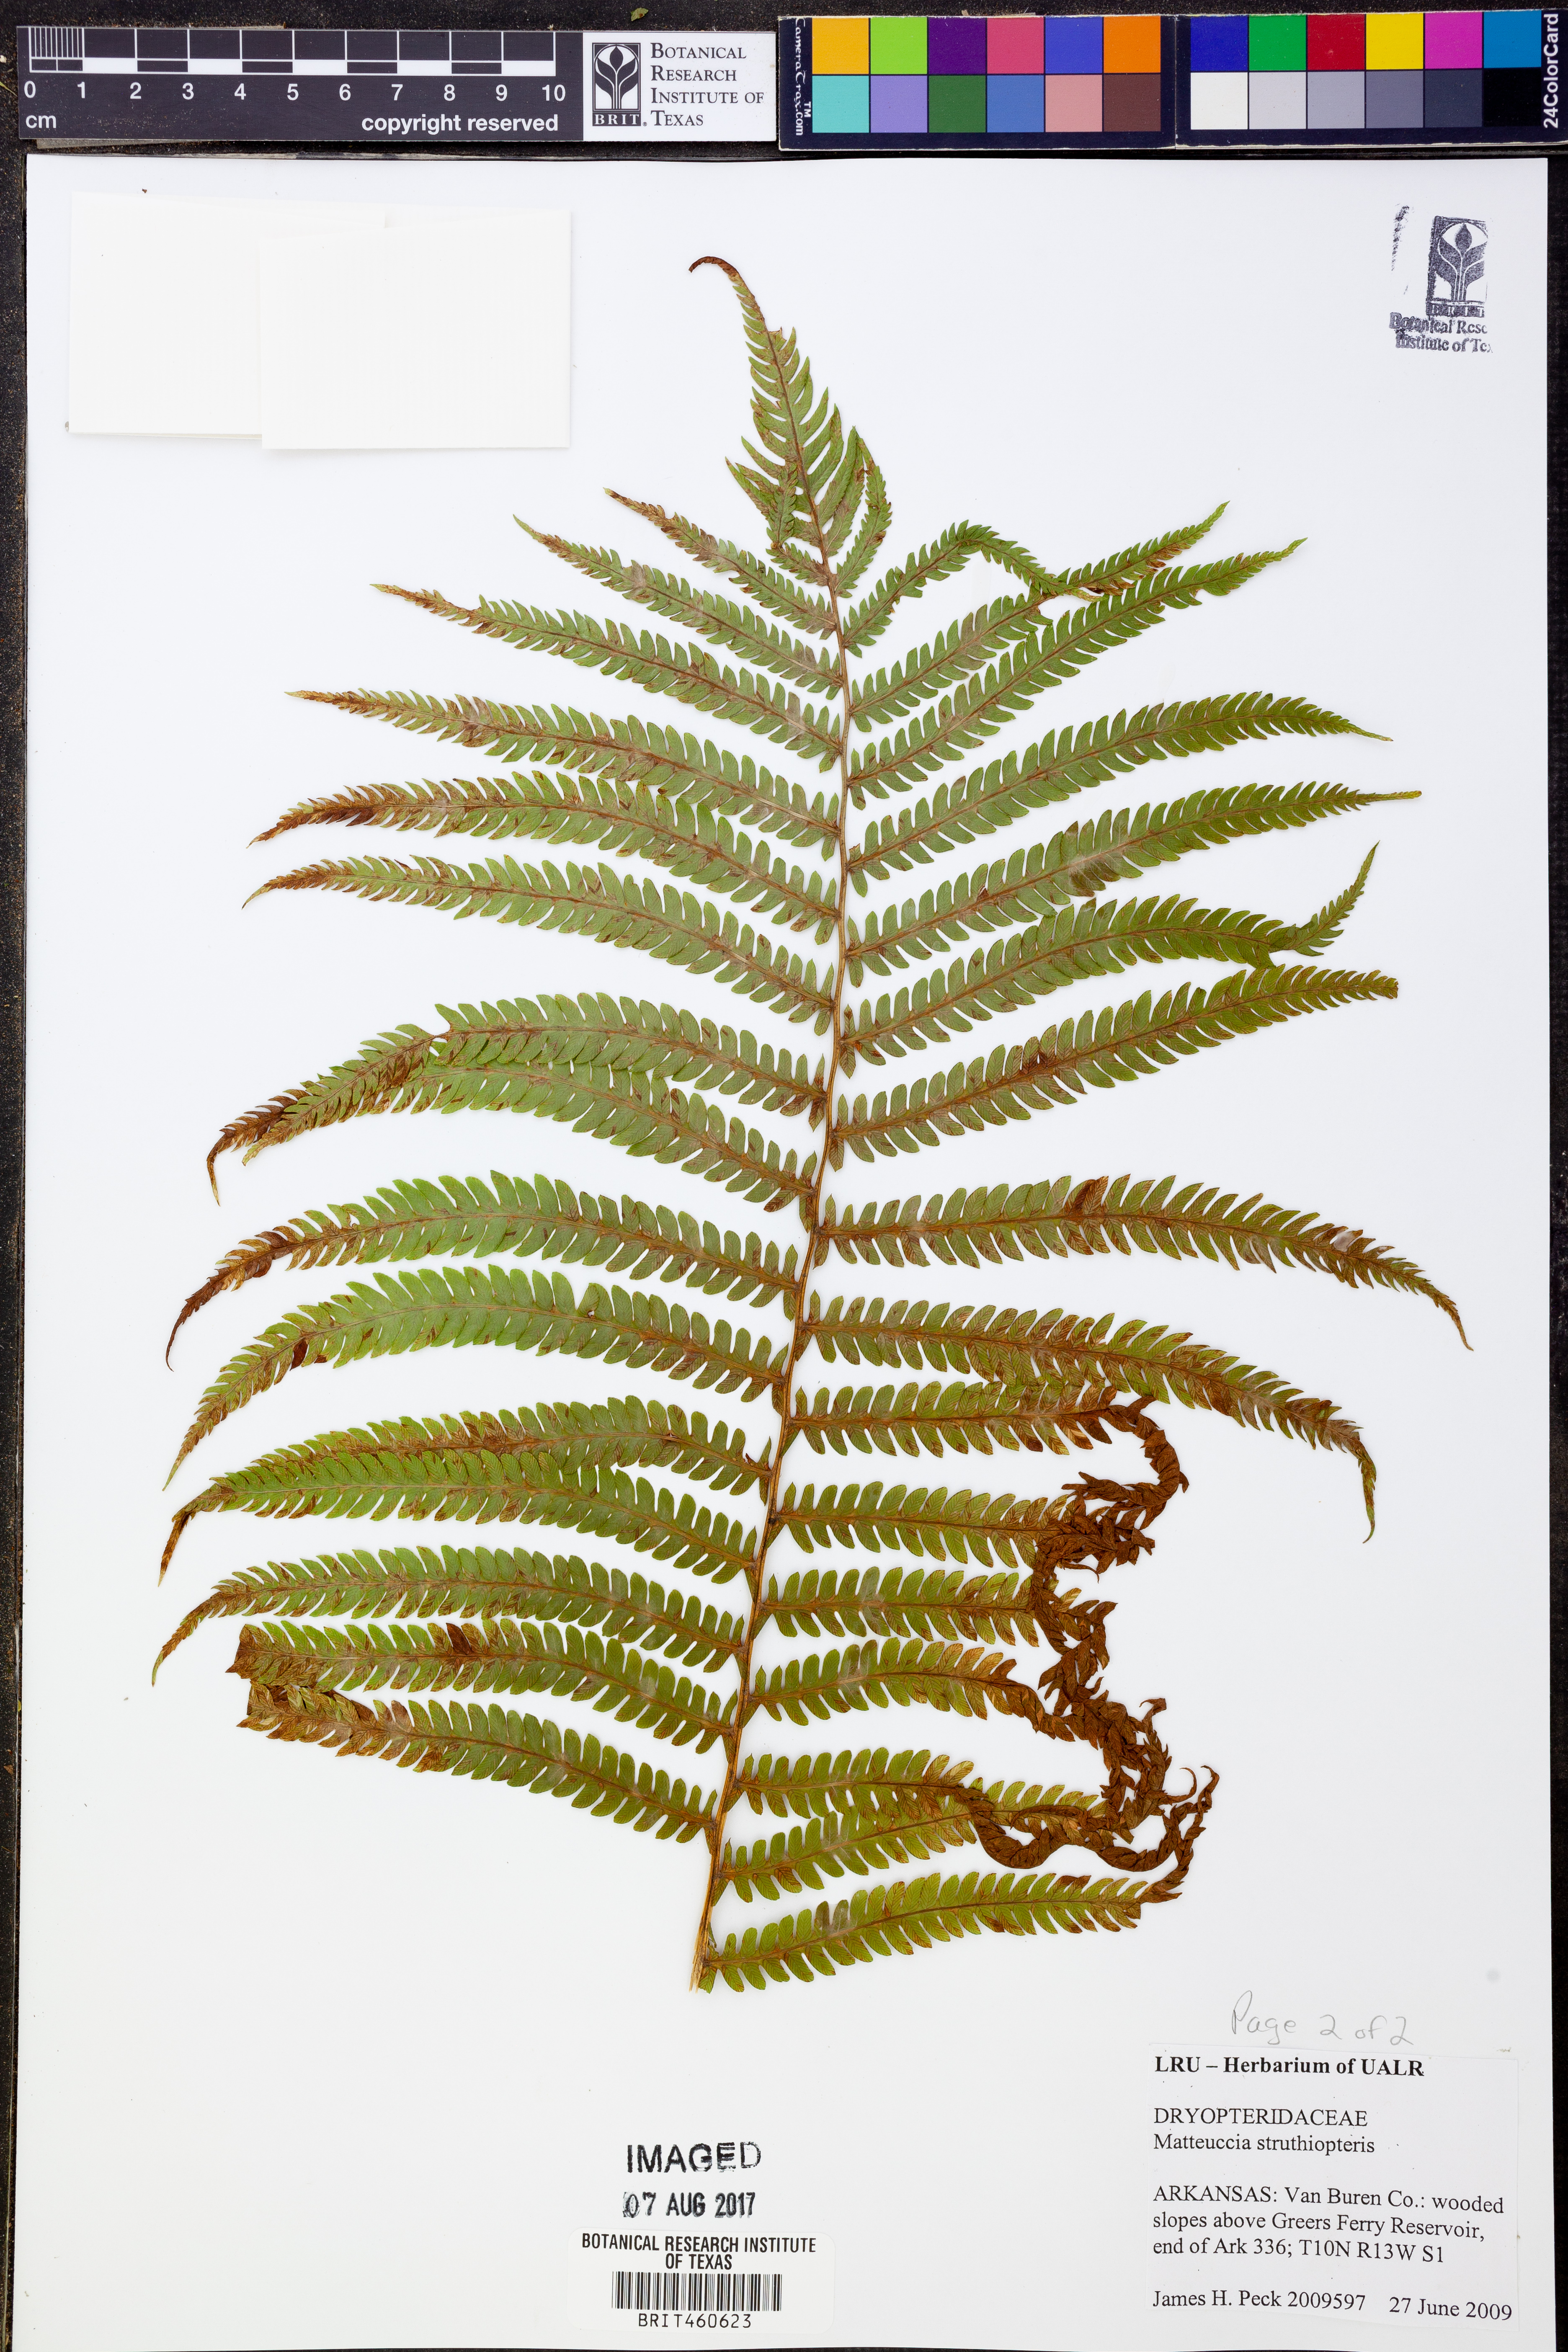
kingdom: Plantae
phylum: Tracheophyta
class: Polypodiopsida
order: Polypodiales
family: Onocleaceae
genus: Matteuccia
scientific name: Matteuccia struthiopteris
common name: Ostrich fern
